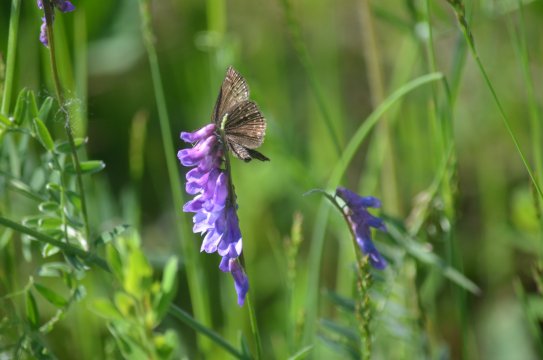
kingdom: Animalia
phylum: Arthropoda
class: Insecta
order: Lepidoptera
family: Hesperiidae
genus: Gesta
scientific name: Gesta
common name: Wild Indigo Duskywing
